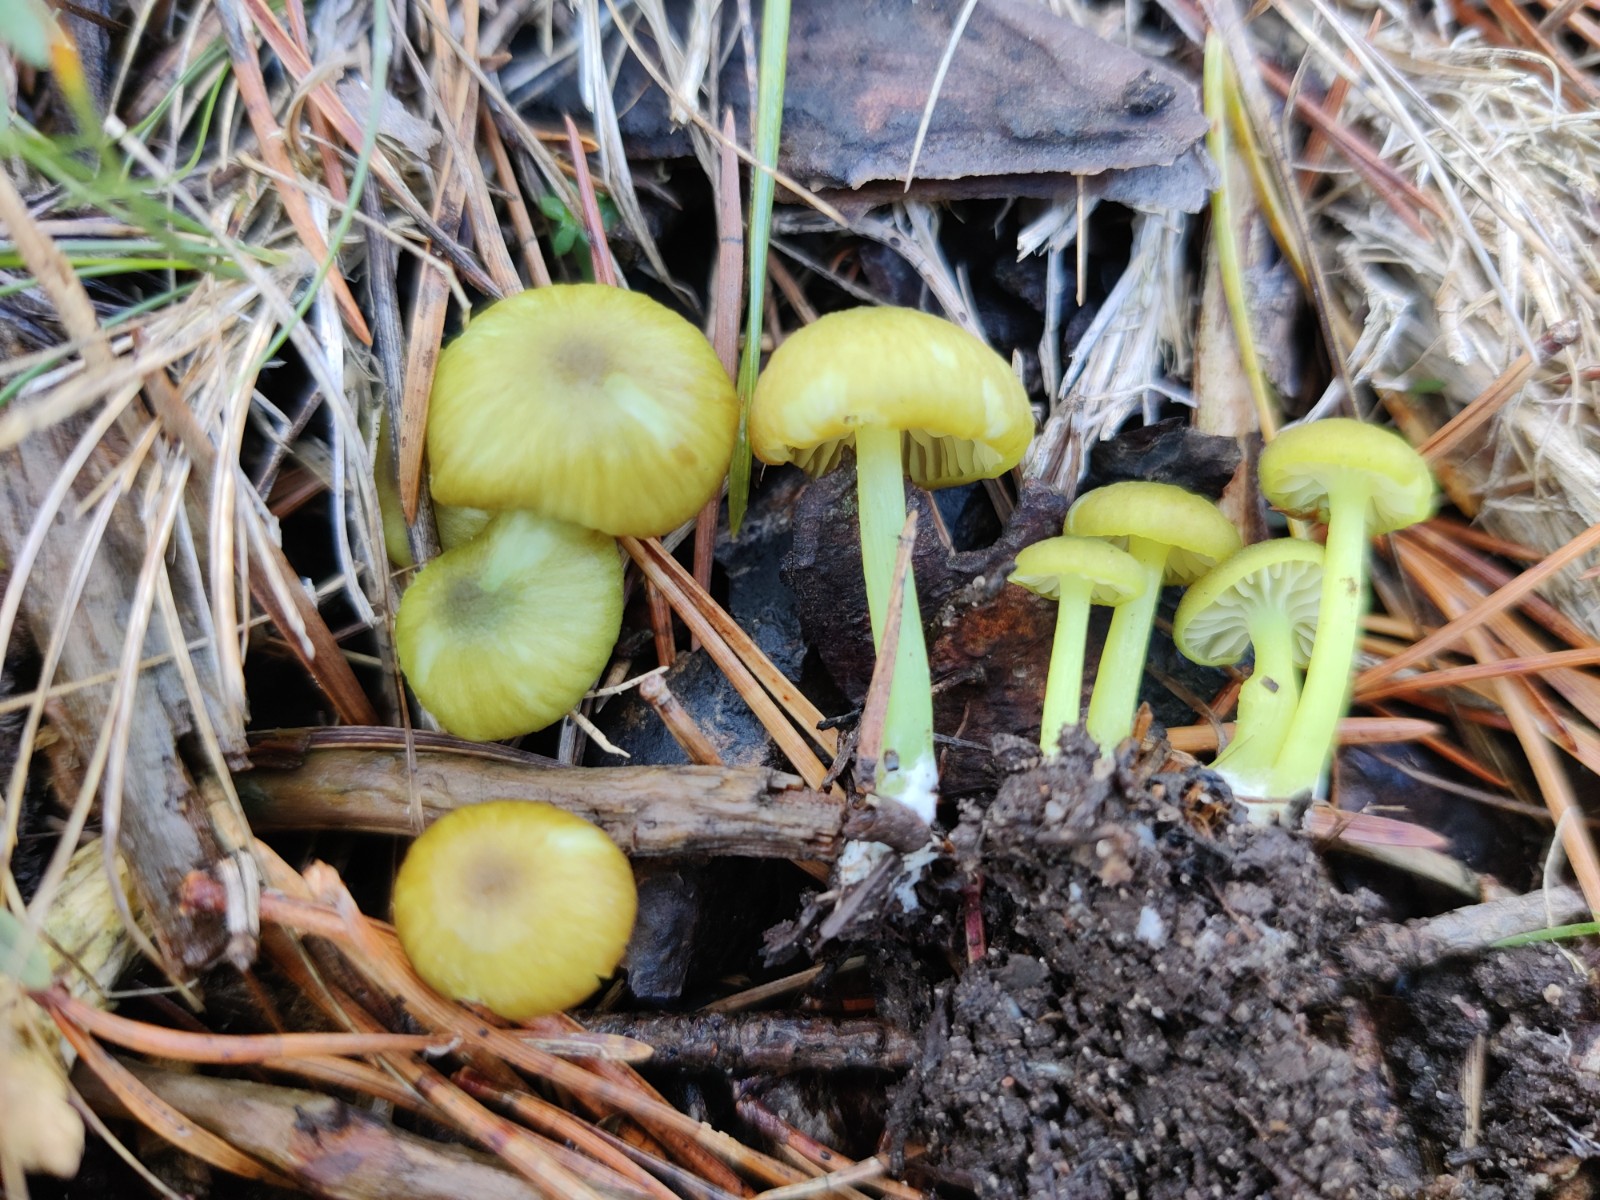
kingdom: Fungi
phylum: Basidiomycota
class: Agaricomycetes
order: Agaricales
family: Entolomataceae
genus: Entoloma
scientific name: Entoloma incanum
